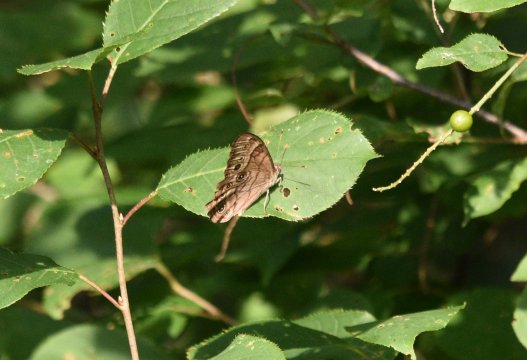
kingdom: Animalia
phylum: Arthropoda
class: Insecta
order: Lepidoptera
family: Nymphalidae
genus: Lethe
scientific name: Lethe anthedon
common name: Northern Pearly-Eye
